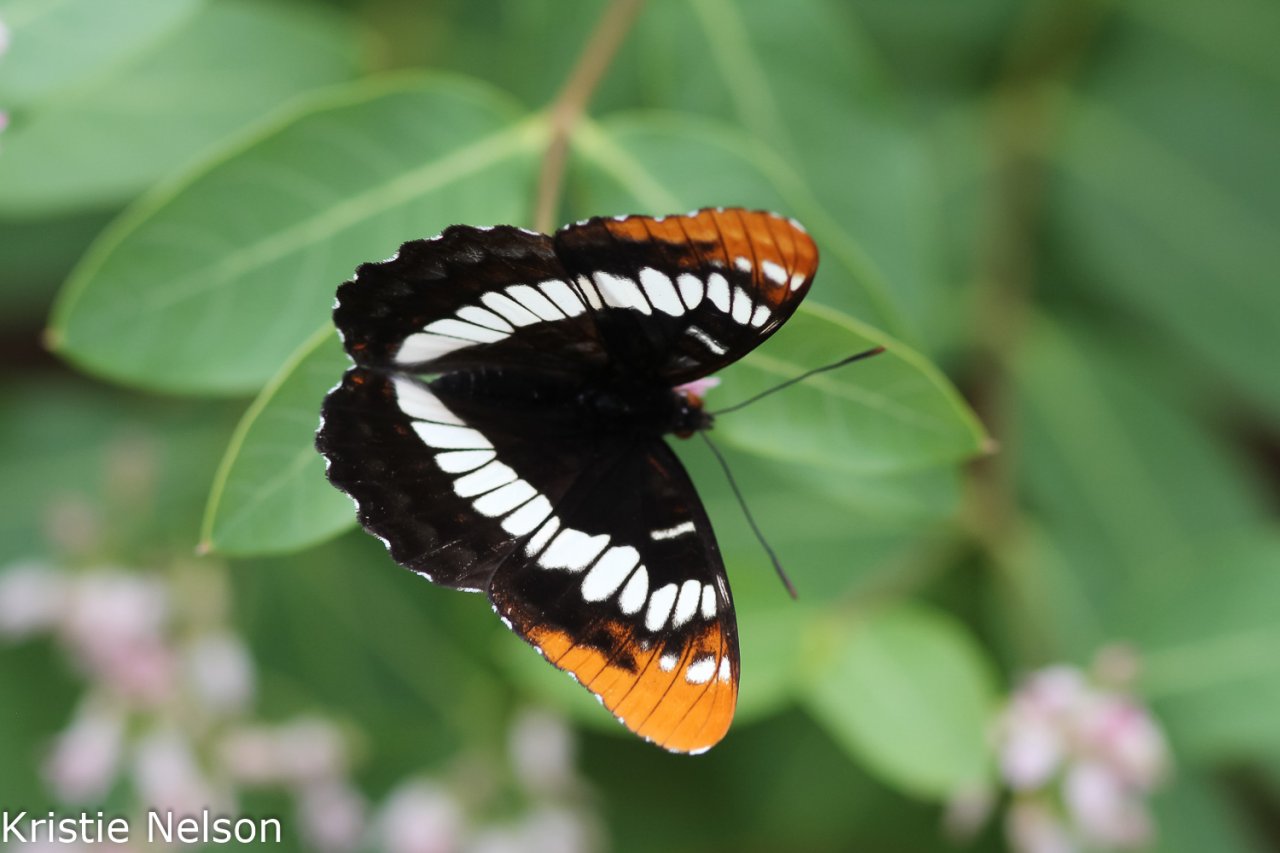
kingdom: Animalia
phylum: Arthropoda
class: Insecta
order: Lepidoptera
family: Nymphalidae
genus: Limenitis
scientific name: Limenitis lorquini
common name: Lorquin's Admiral
